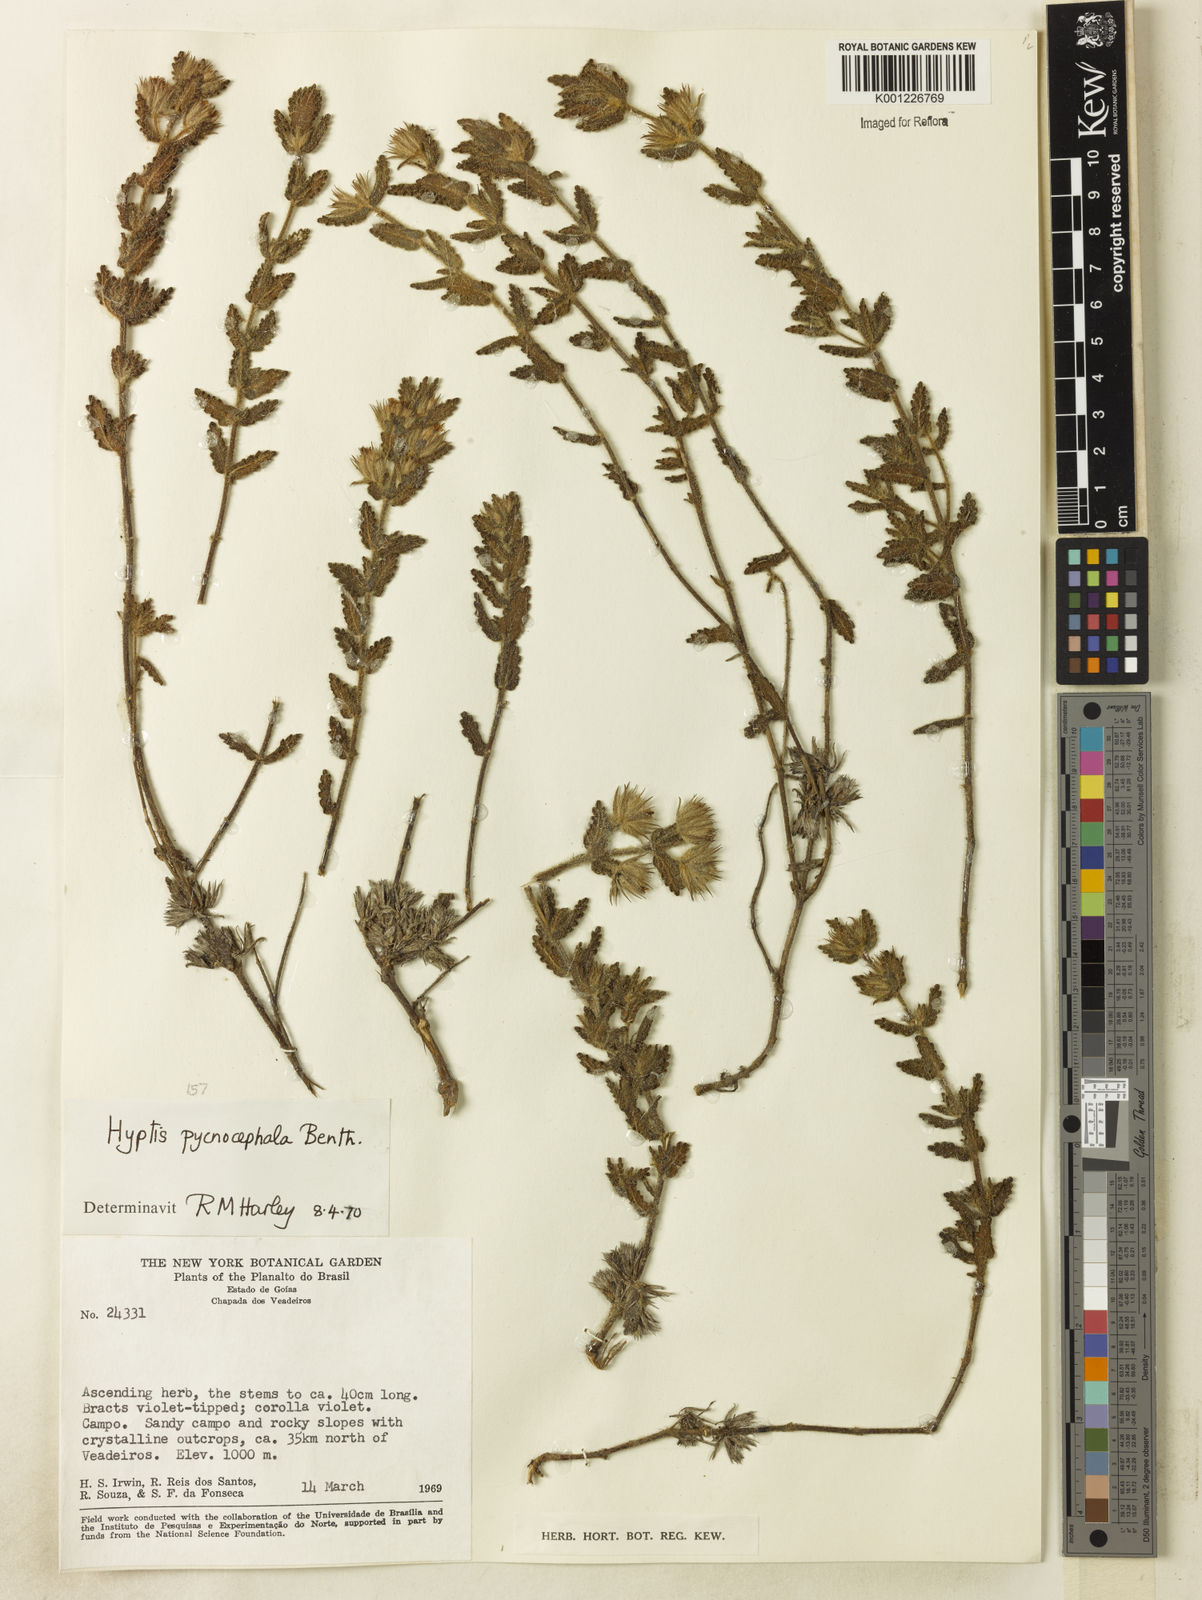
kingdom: Plantae
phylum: Tracheophyta
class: Magnoliopsida
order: Lamiales
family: Lamiaceae
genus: Hyptis
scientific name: Hyptis pycnocephala
